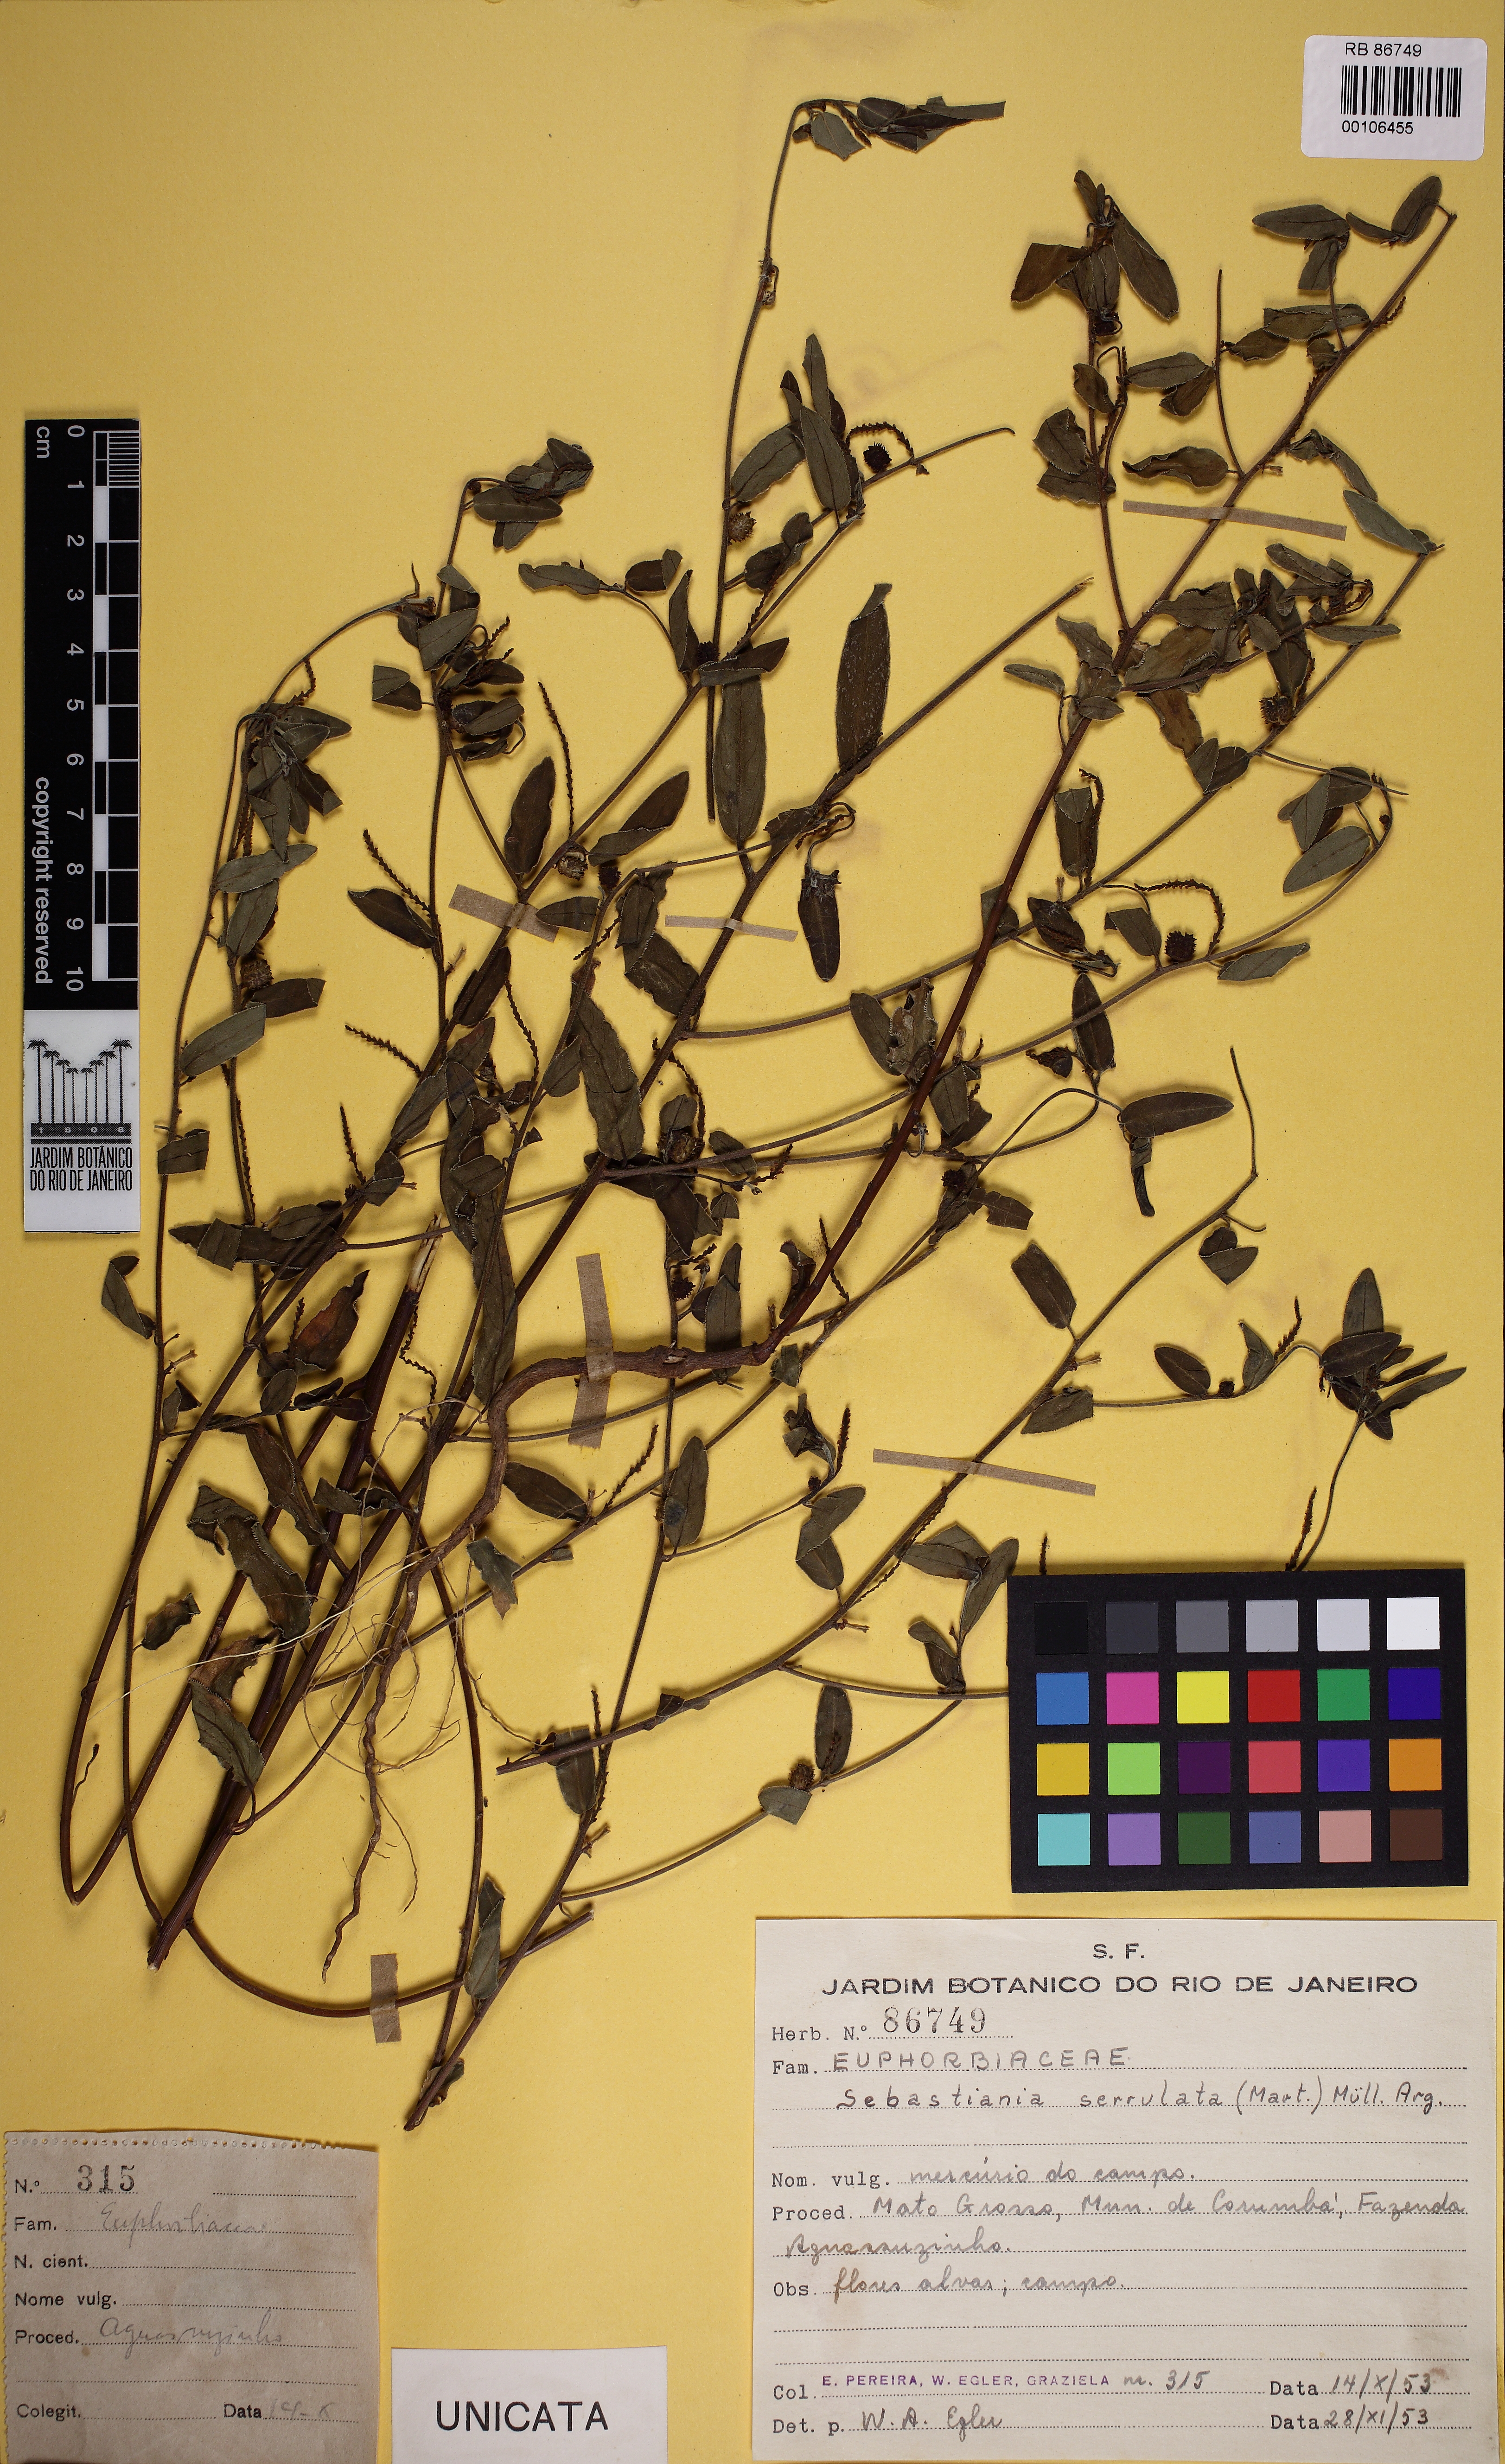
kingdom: Plantae
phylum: Tracheophyta
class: Magnoliopsida
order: Malpighiales
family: Euphorbiaceae
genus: Microstachys
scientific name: Microstachys serrulata
